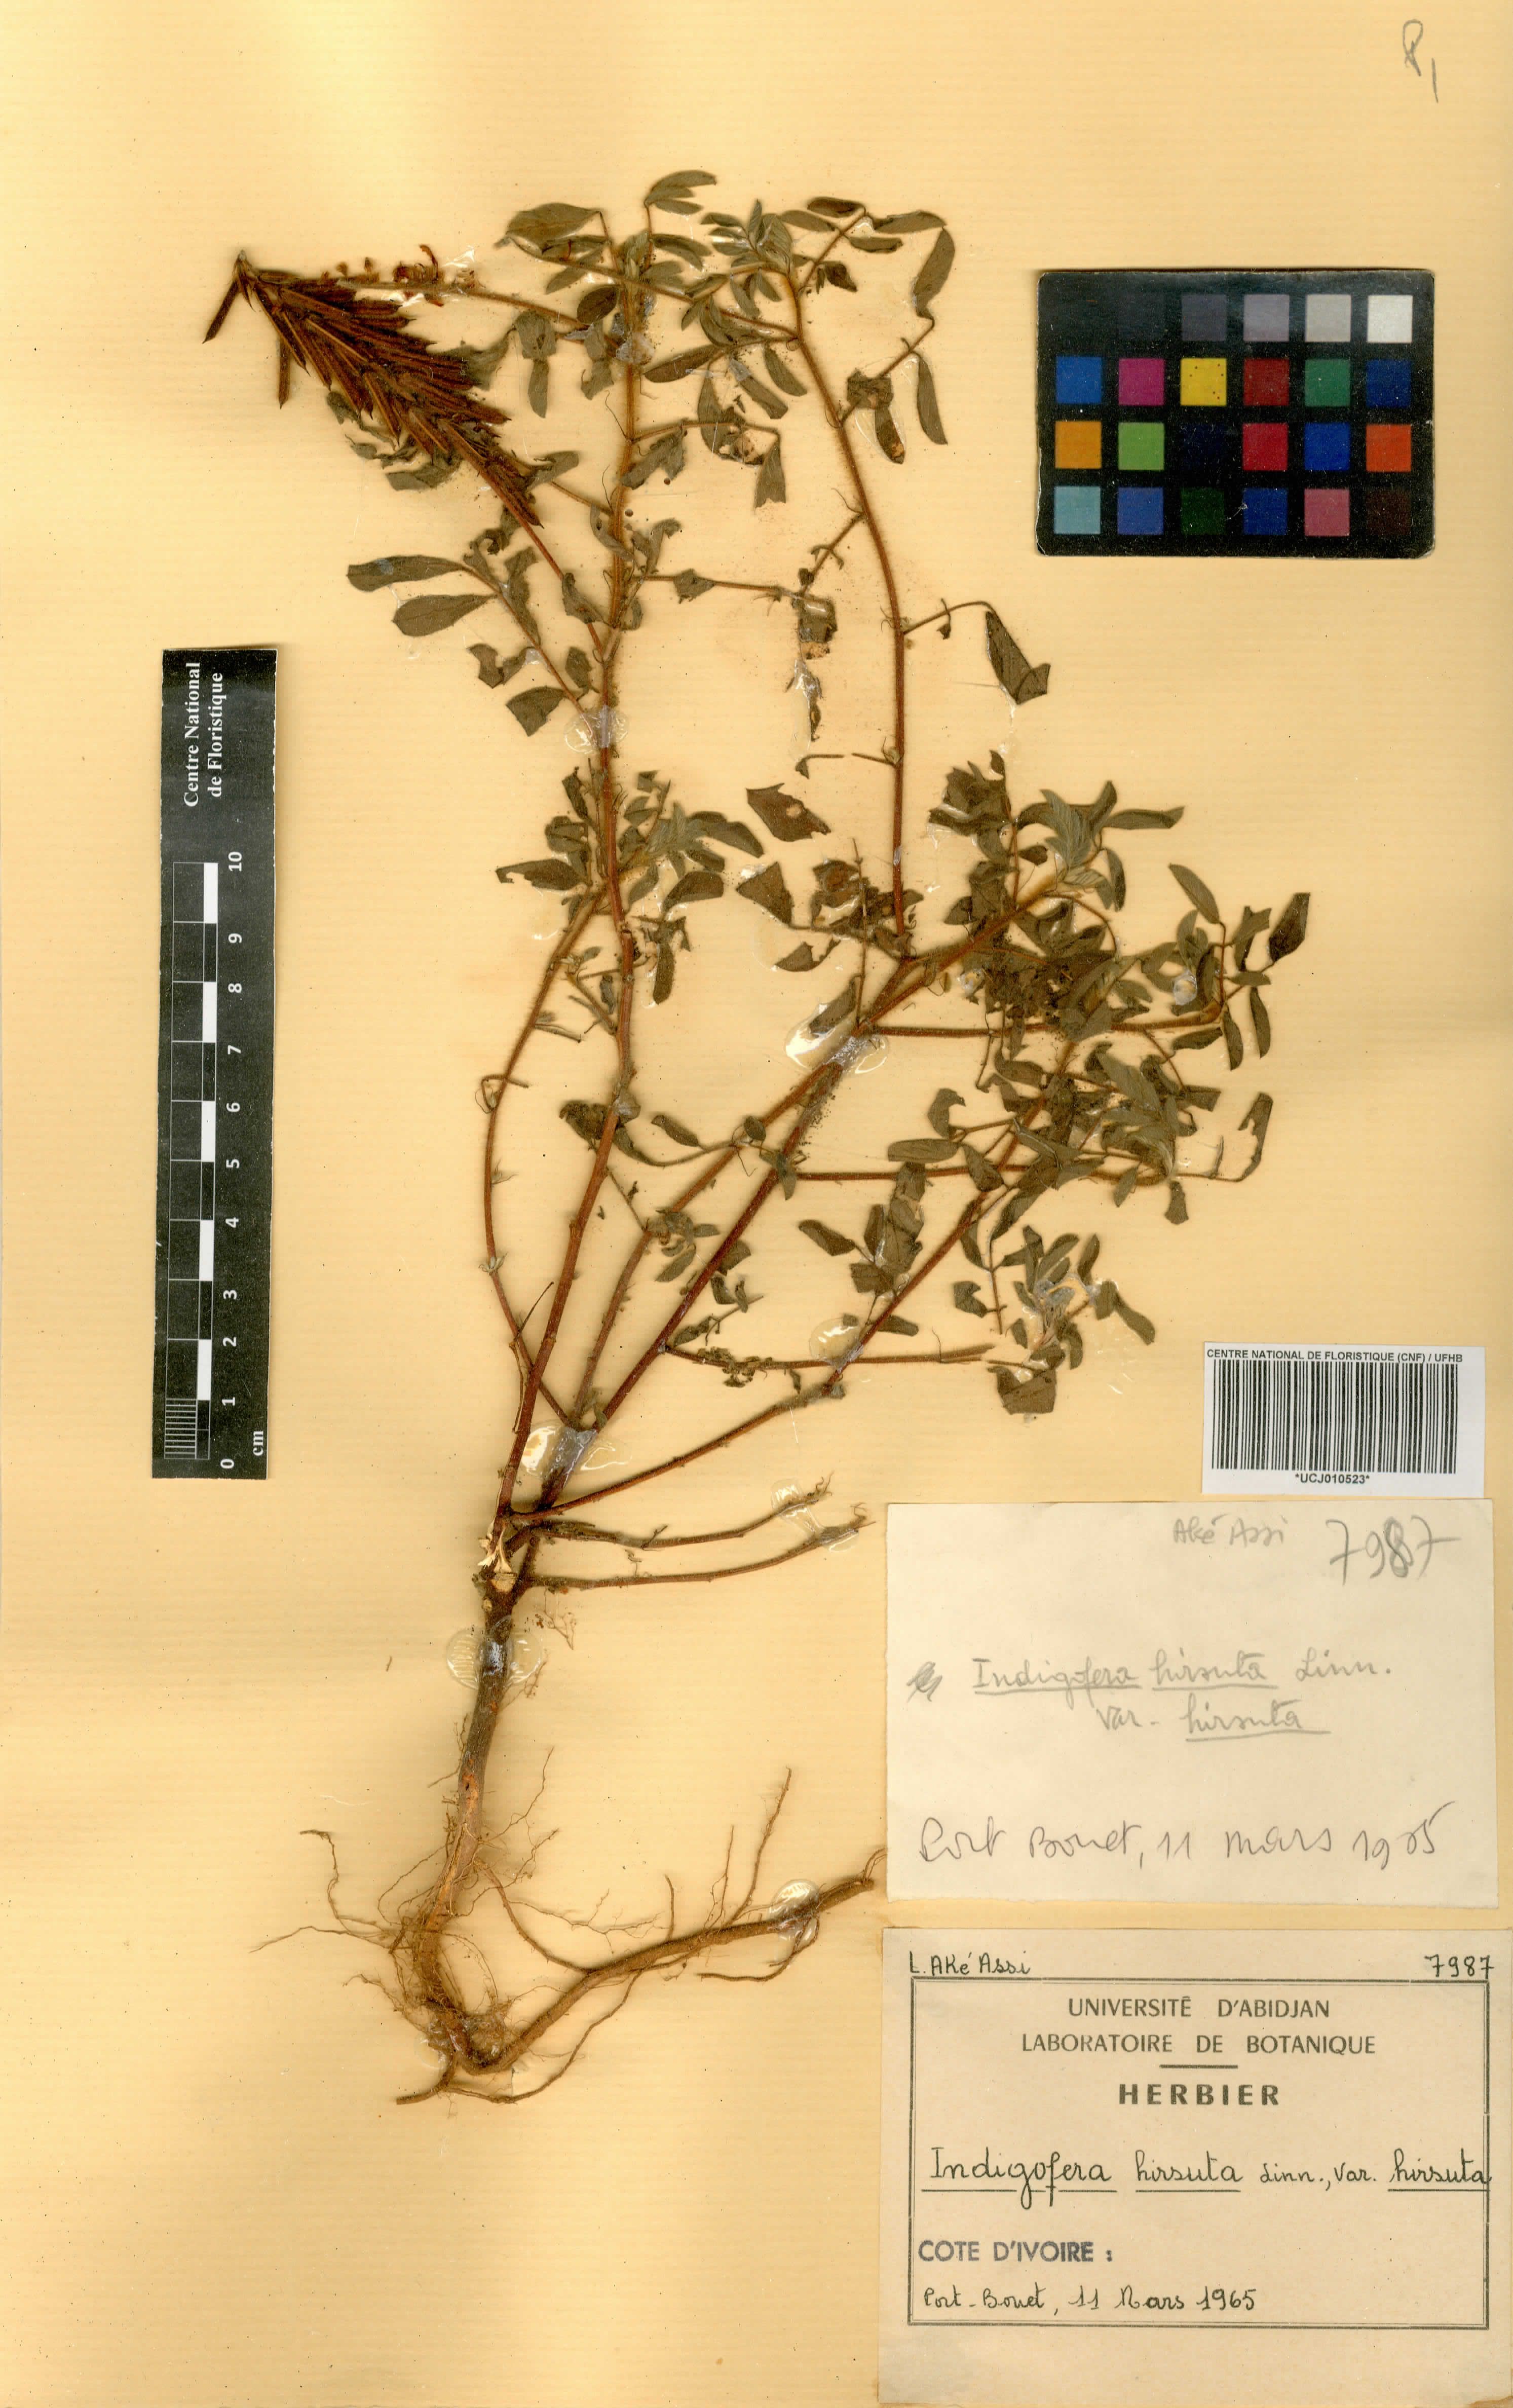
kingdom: Plantae
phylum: Tracheophyta
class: Magnoliopsida
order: Fabales
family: Fabaceae
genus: Indigofera
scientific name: Indigofera hirsuta
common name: Hairy indigo
